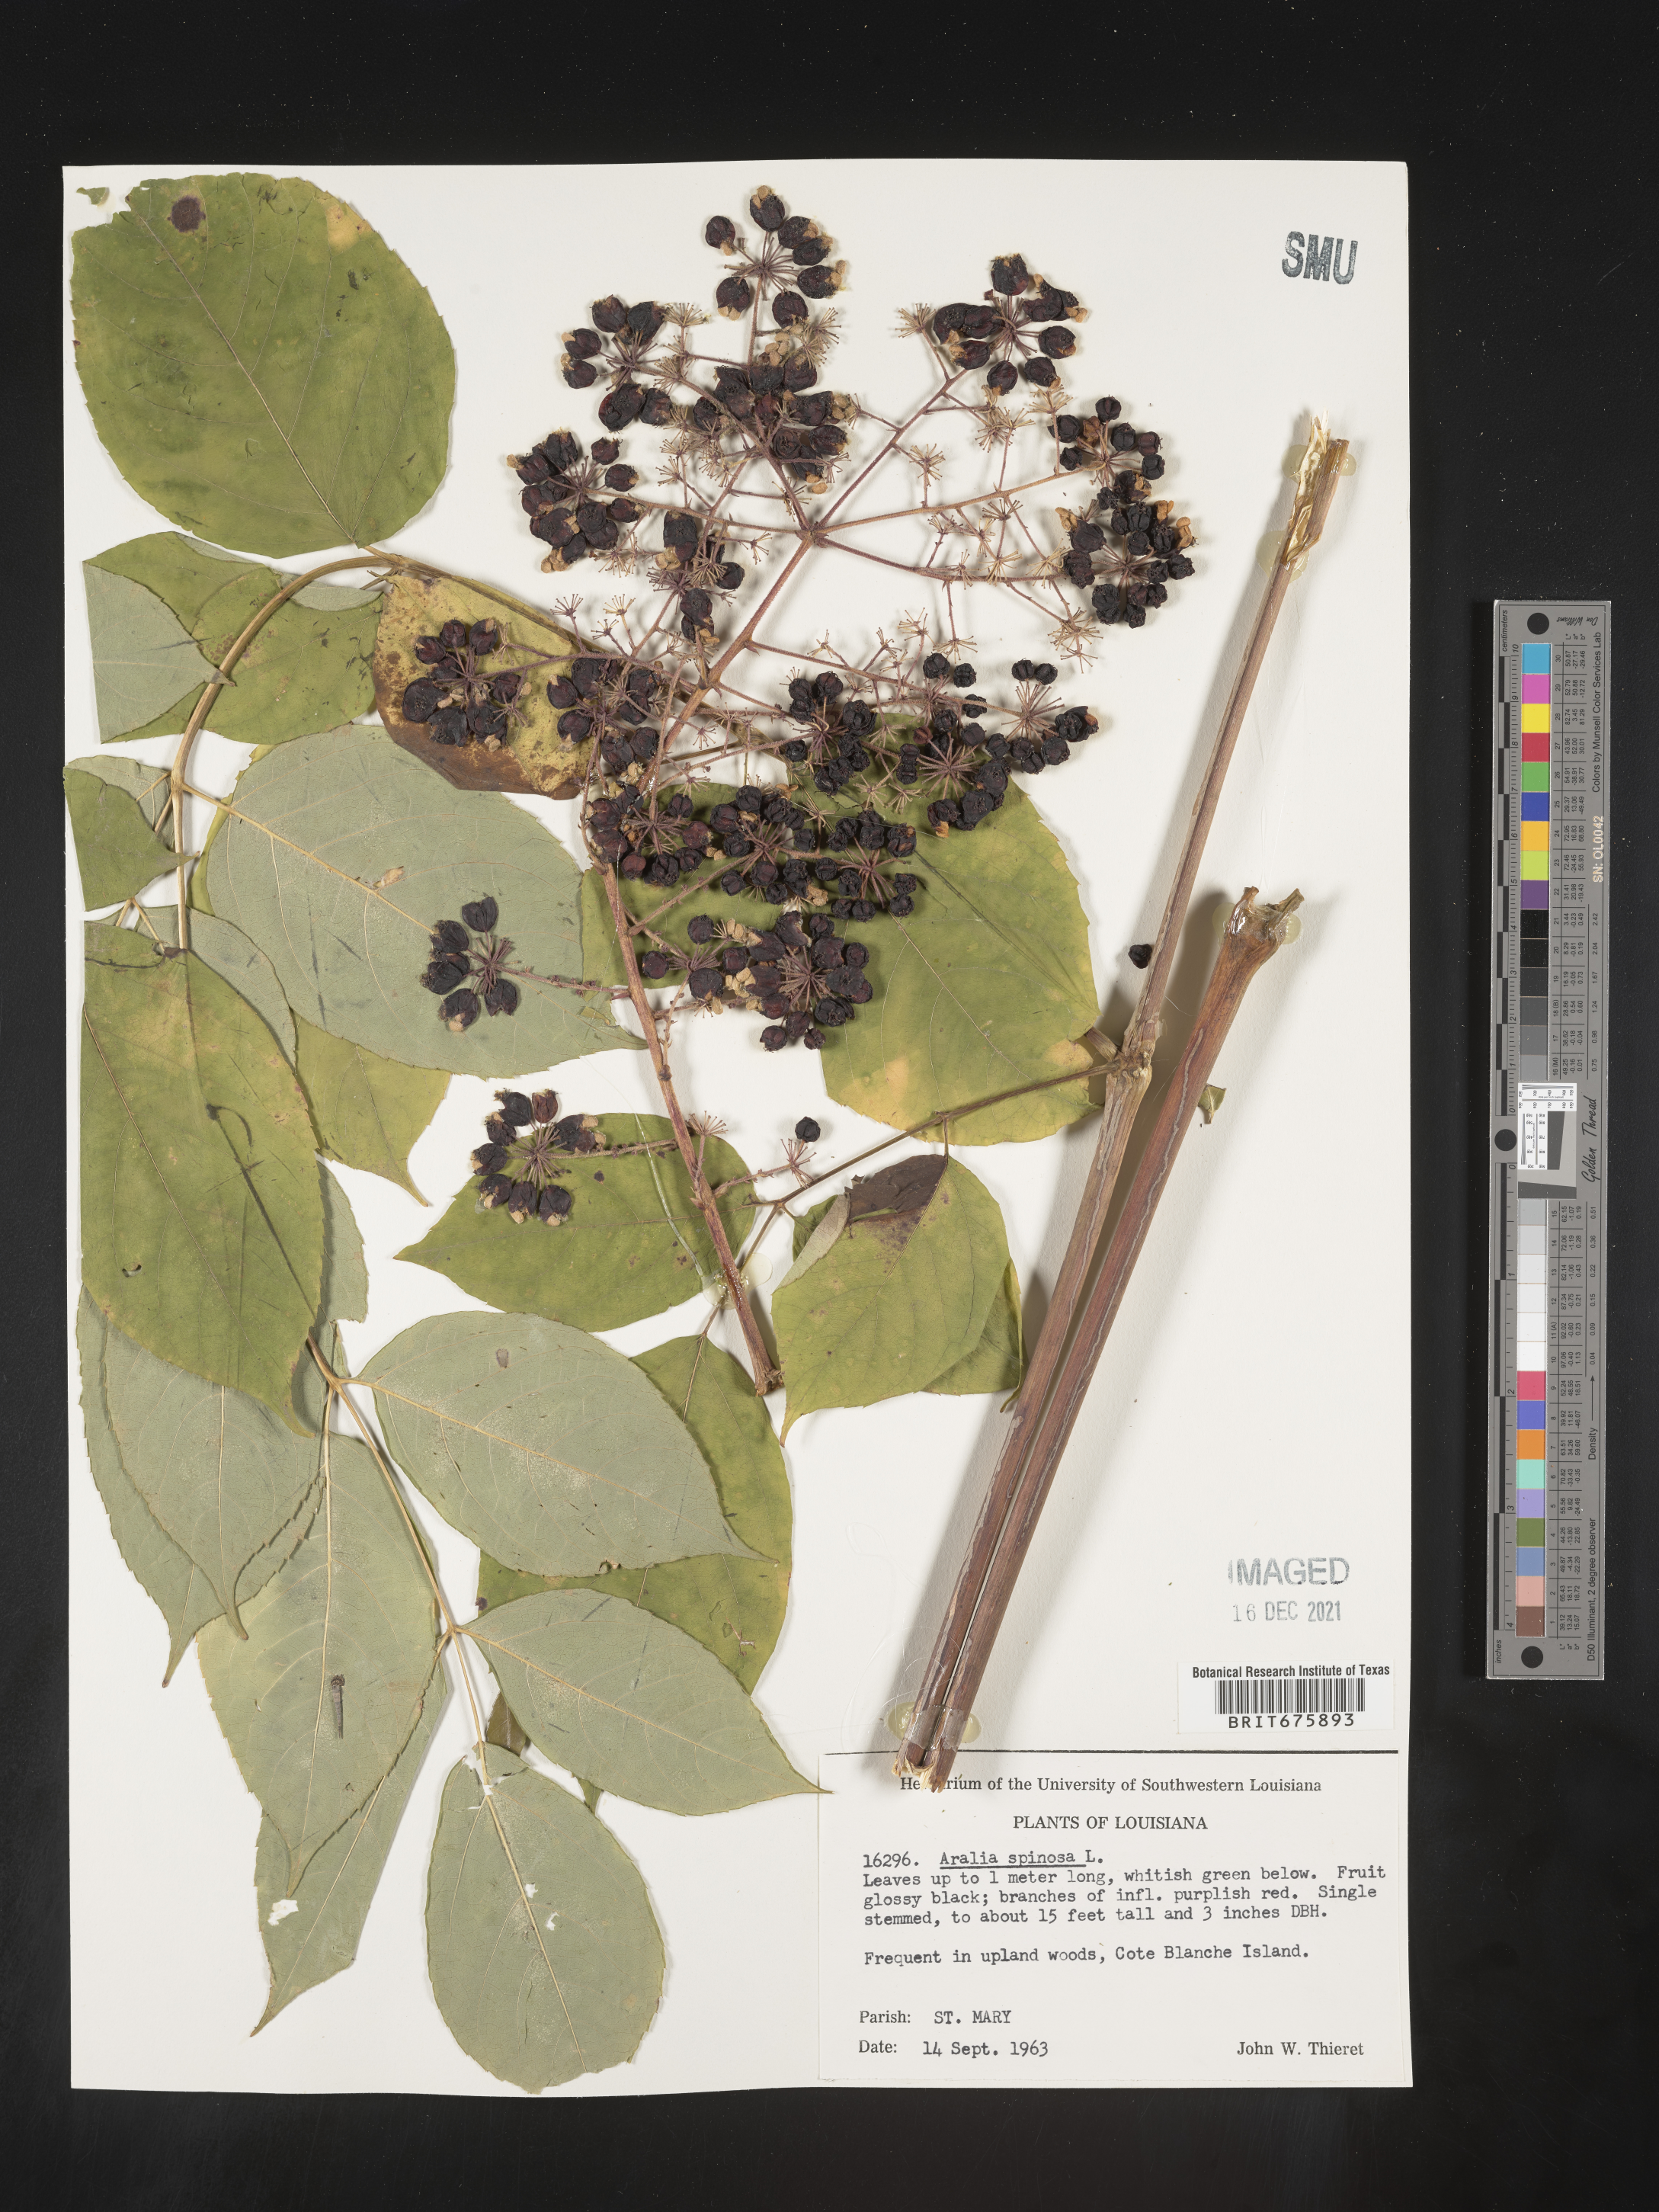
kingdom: Plantae
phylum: Tracheophyta
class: Magnoliopsida
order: Apiales
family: Araliaceae
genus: Aralia
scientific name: Aralia spinosa
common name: Hercules'-club
